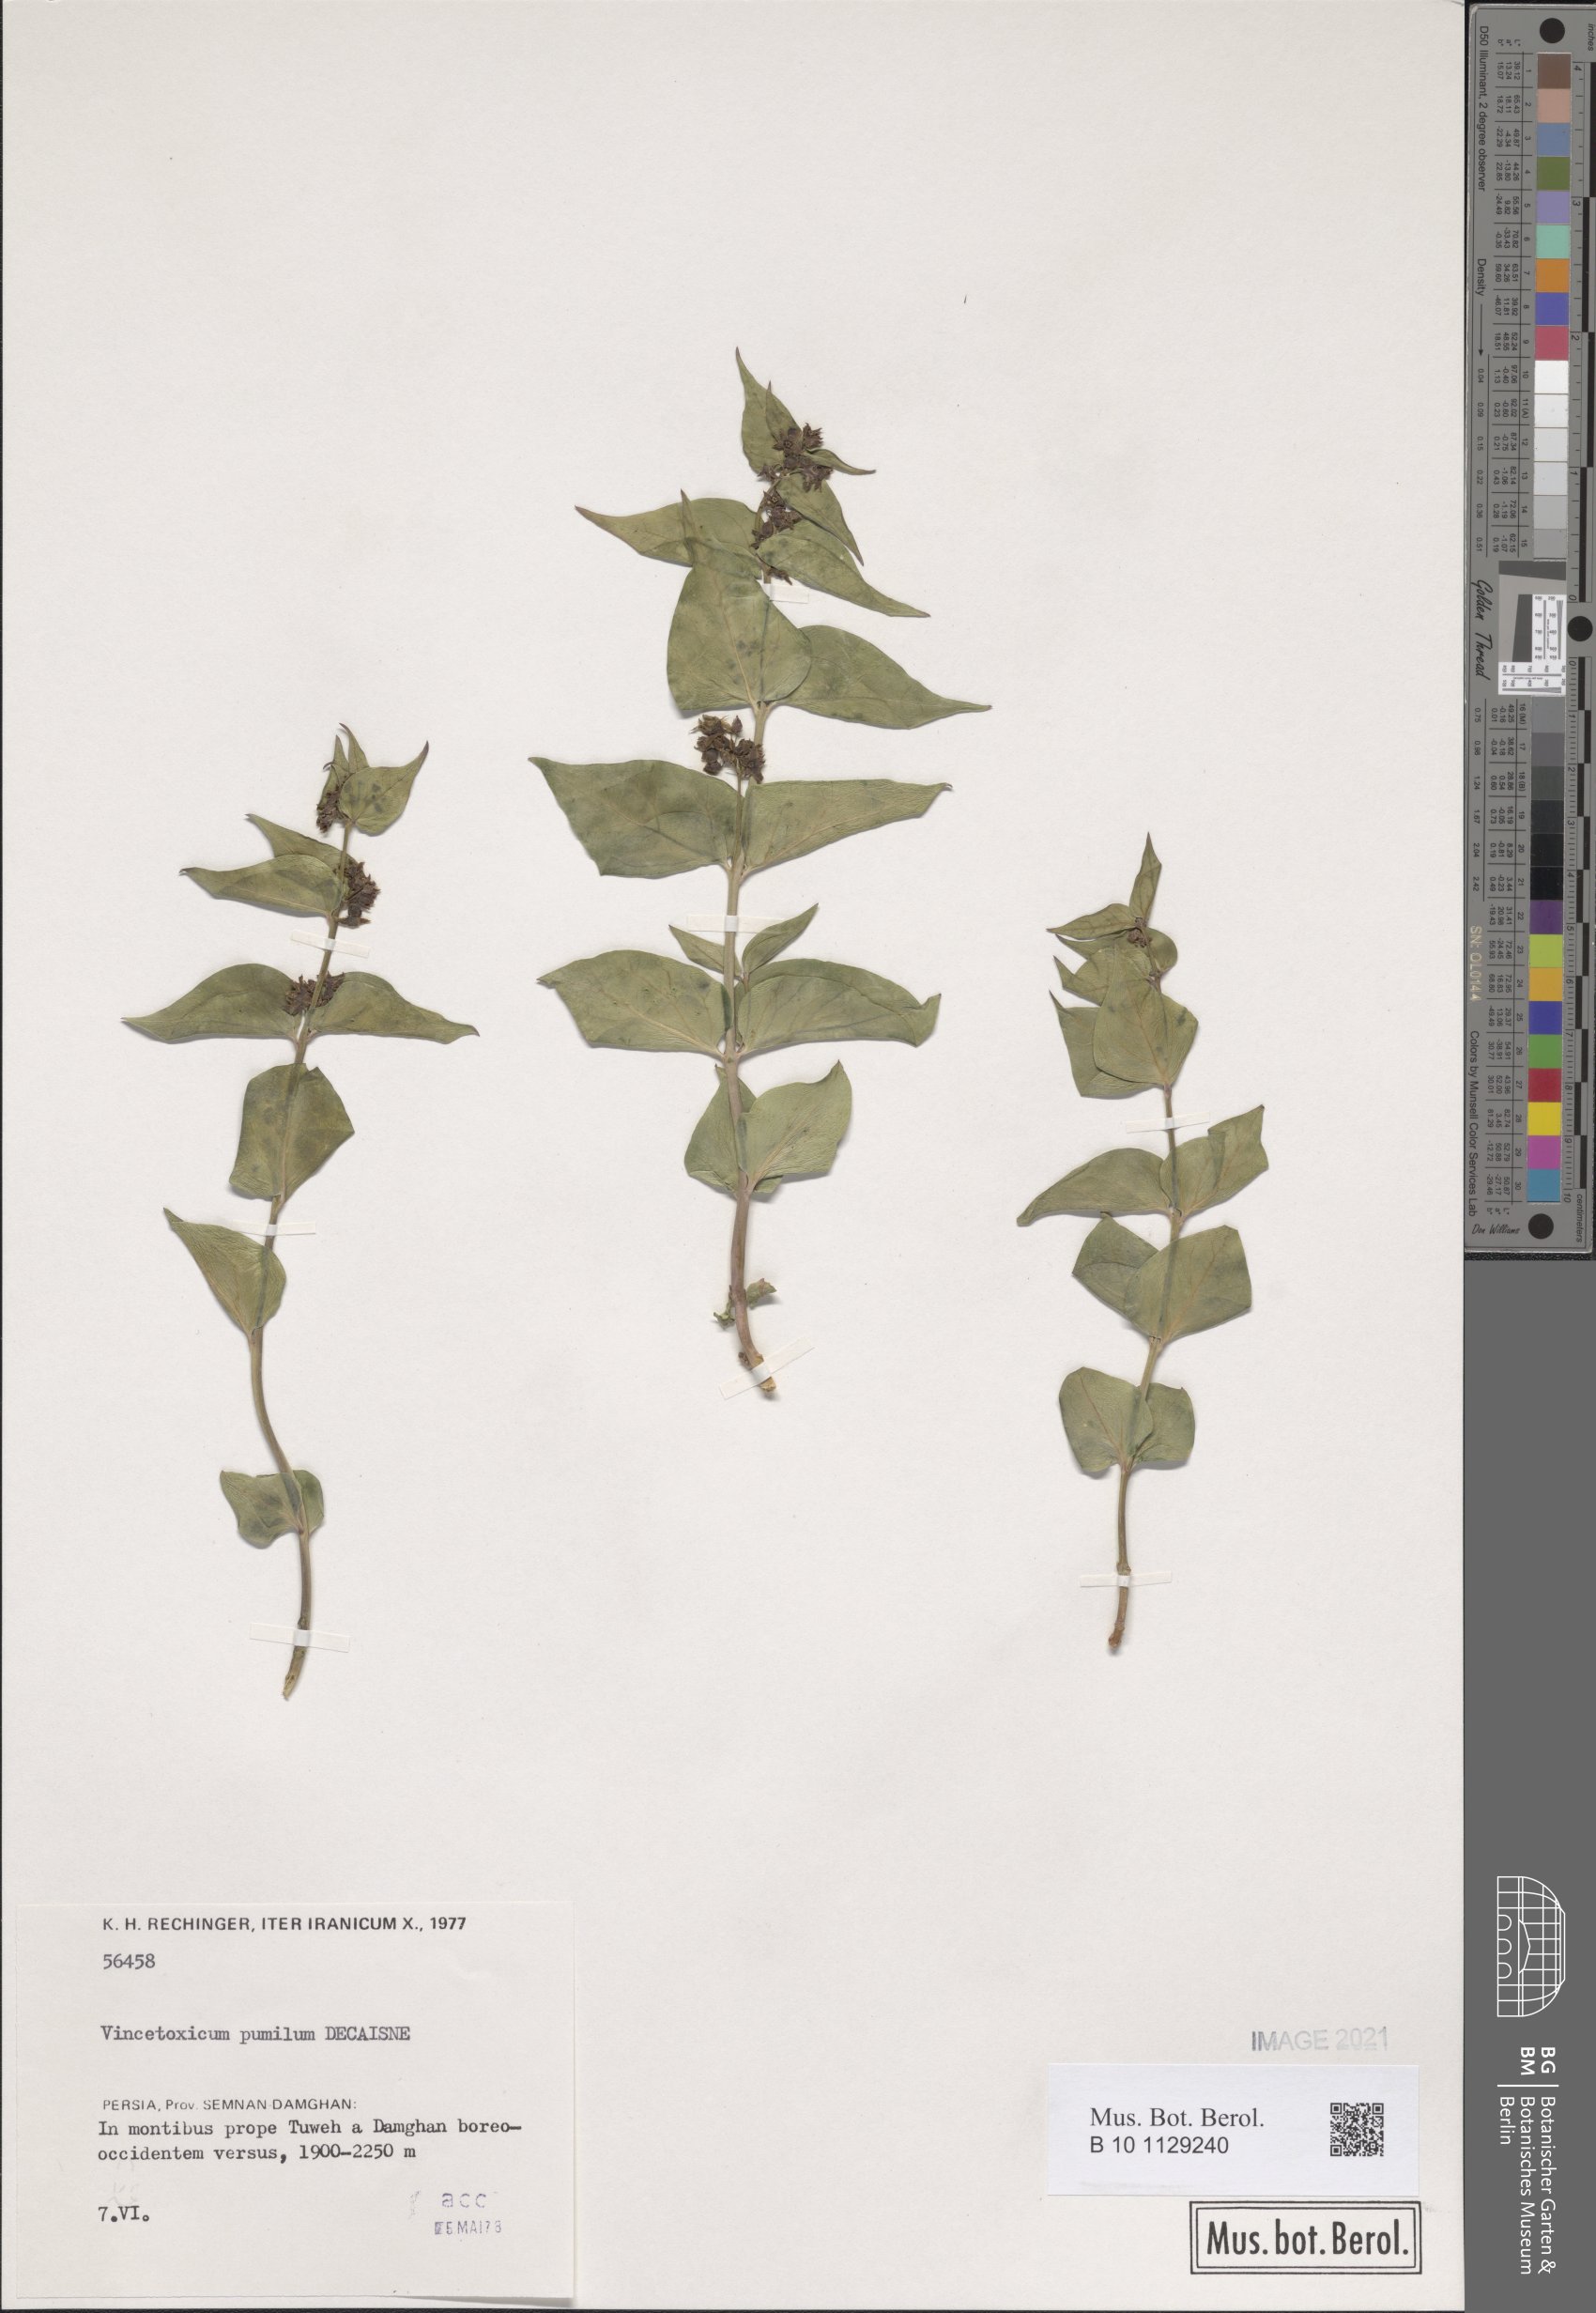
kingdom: Plantae
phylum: Tracheophyta
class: Magnoliopsida
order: Gentianales
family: Apocynaceae
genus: Vincetoxicum
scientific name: Vincetoxicum pumilum
